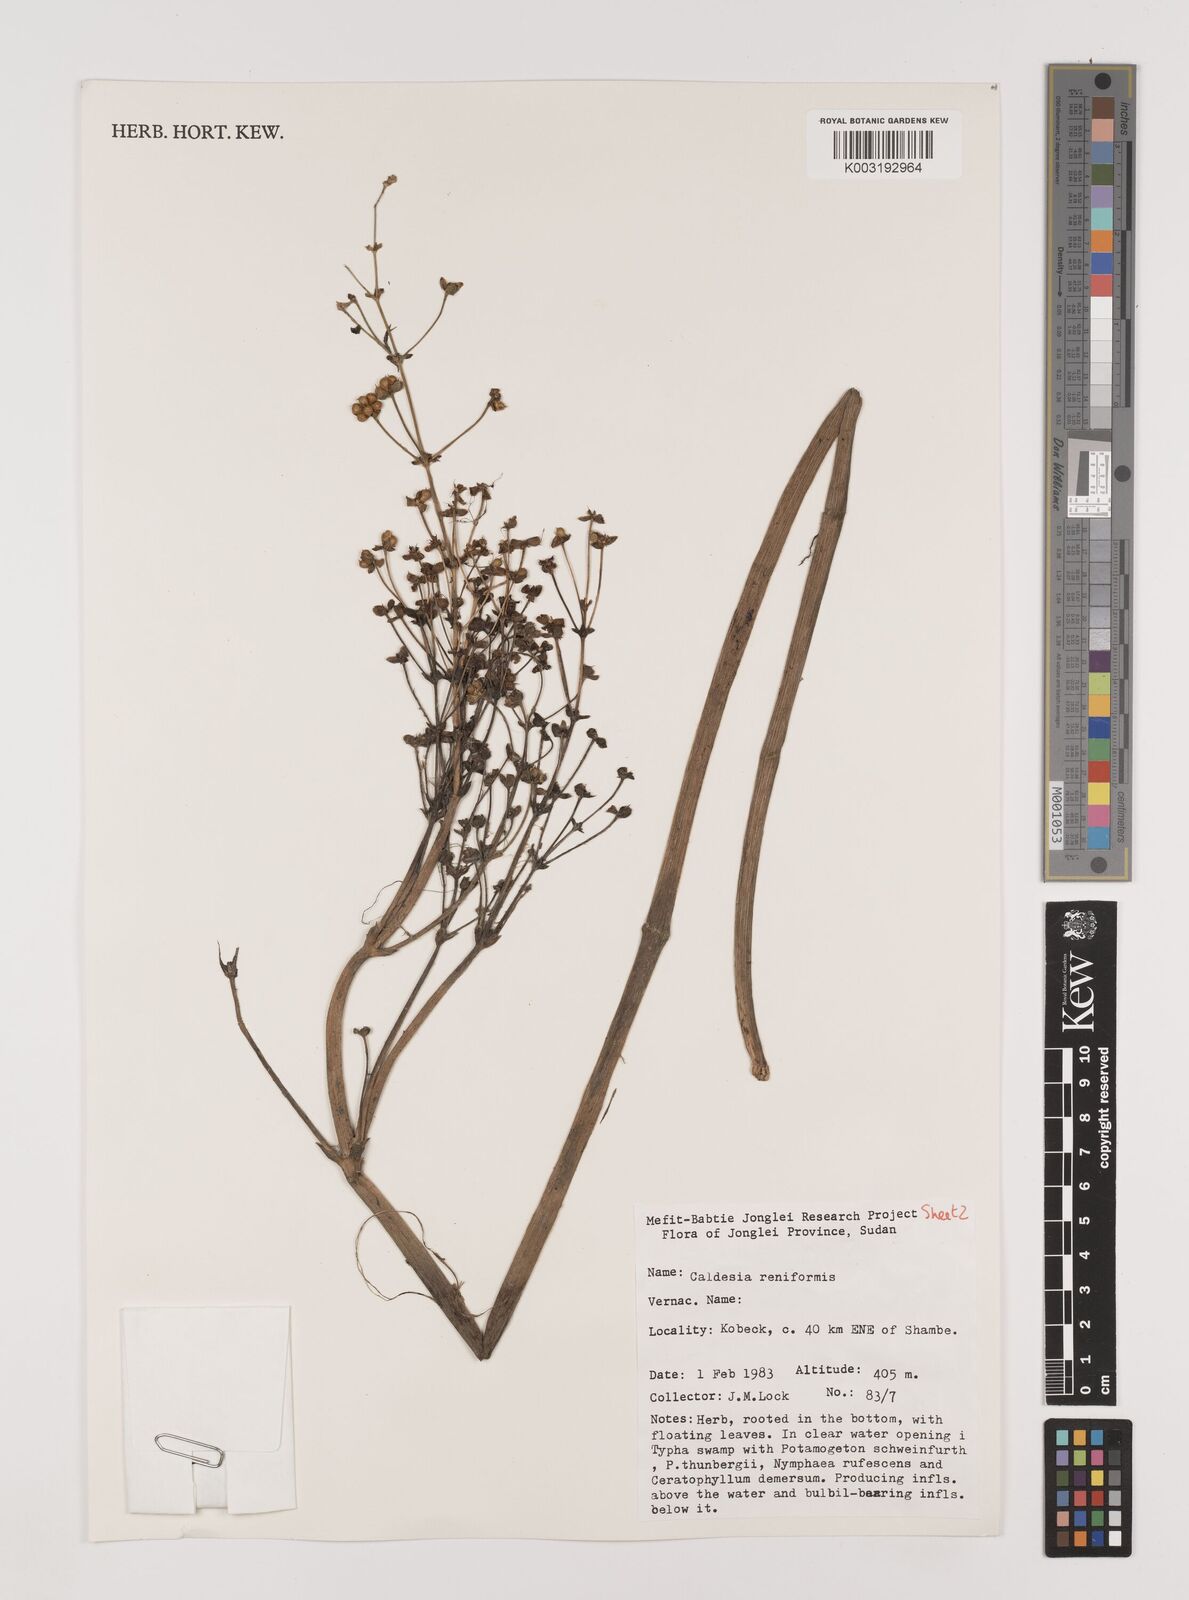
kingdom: Plantae
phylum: Tracheophyta
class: Liliopsida
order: Alismatales
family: Alismataceae
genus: Caldesia
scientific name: Caldesia parnassifolia
